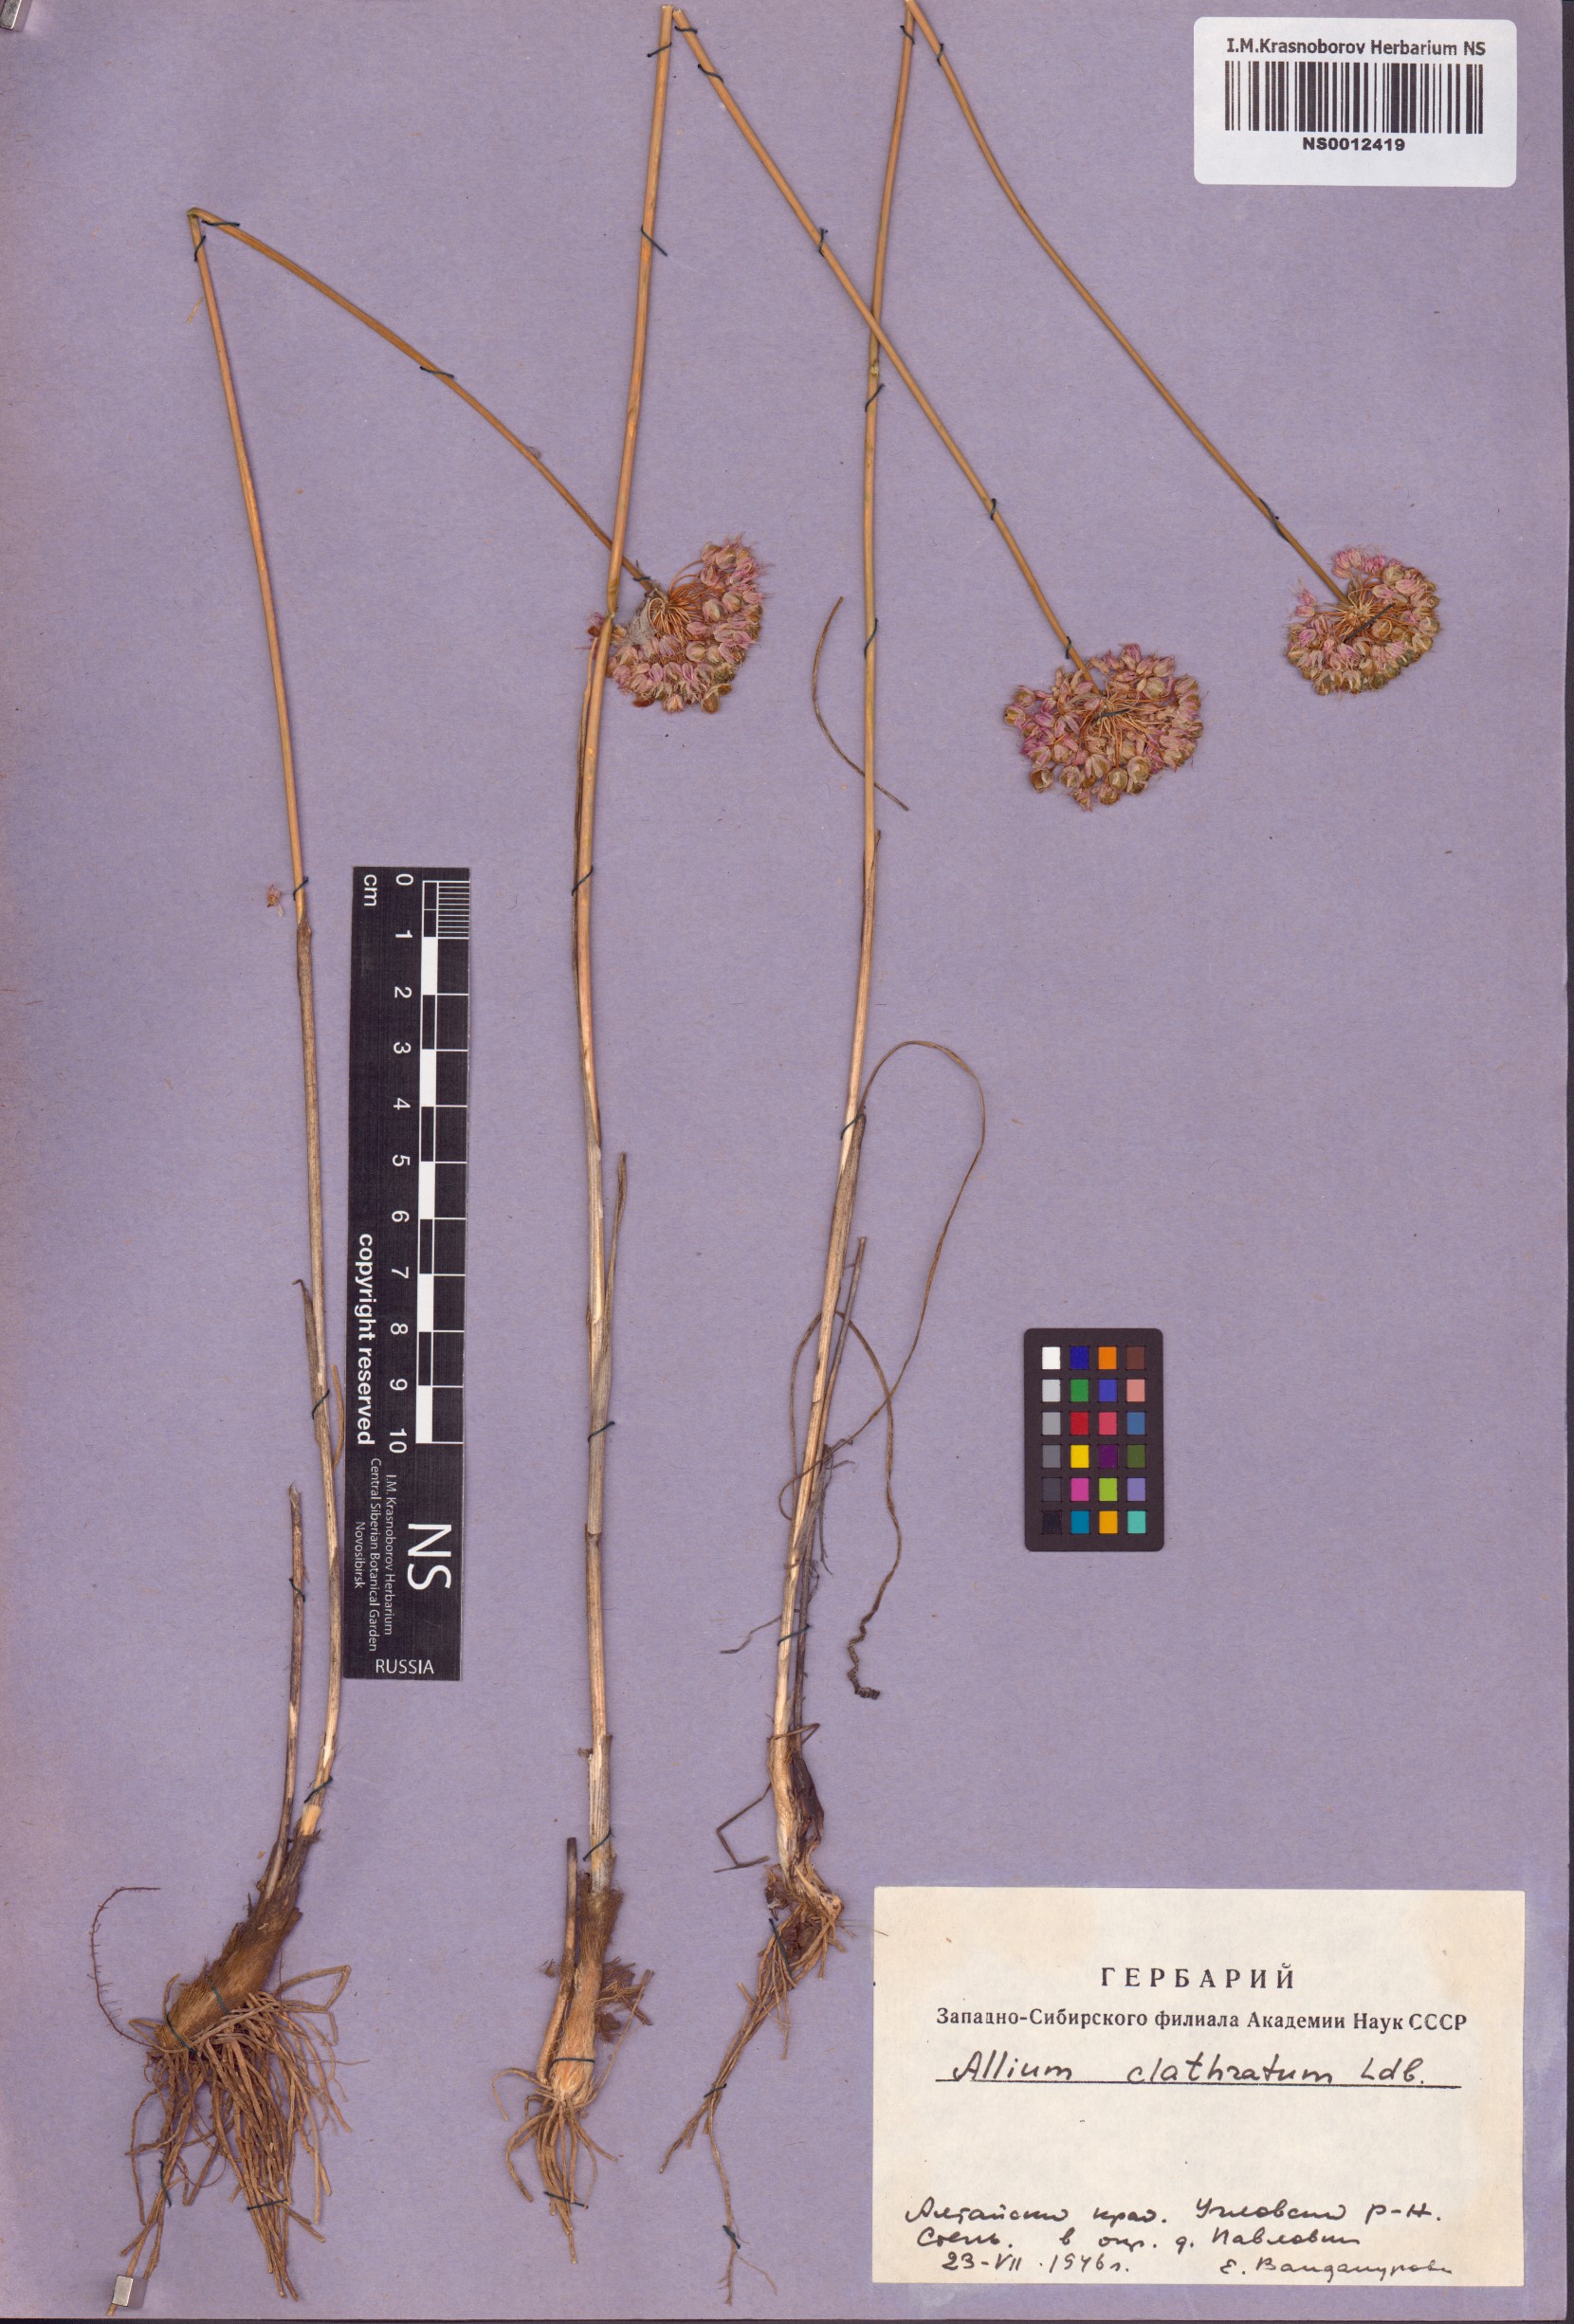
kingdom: Plantae
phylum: Tracheophyta
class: Liliopsida
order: Asparagales
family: Amaryllidaceae
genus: Allium
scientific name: Allium clathratum
